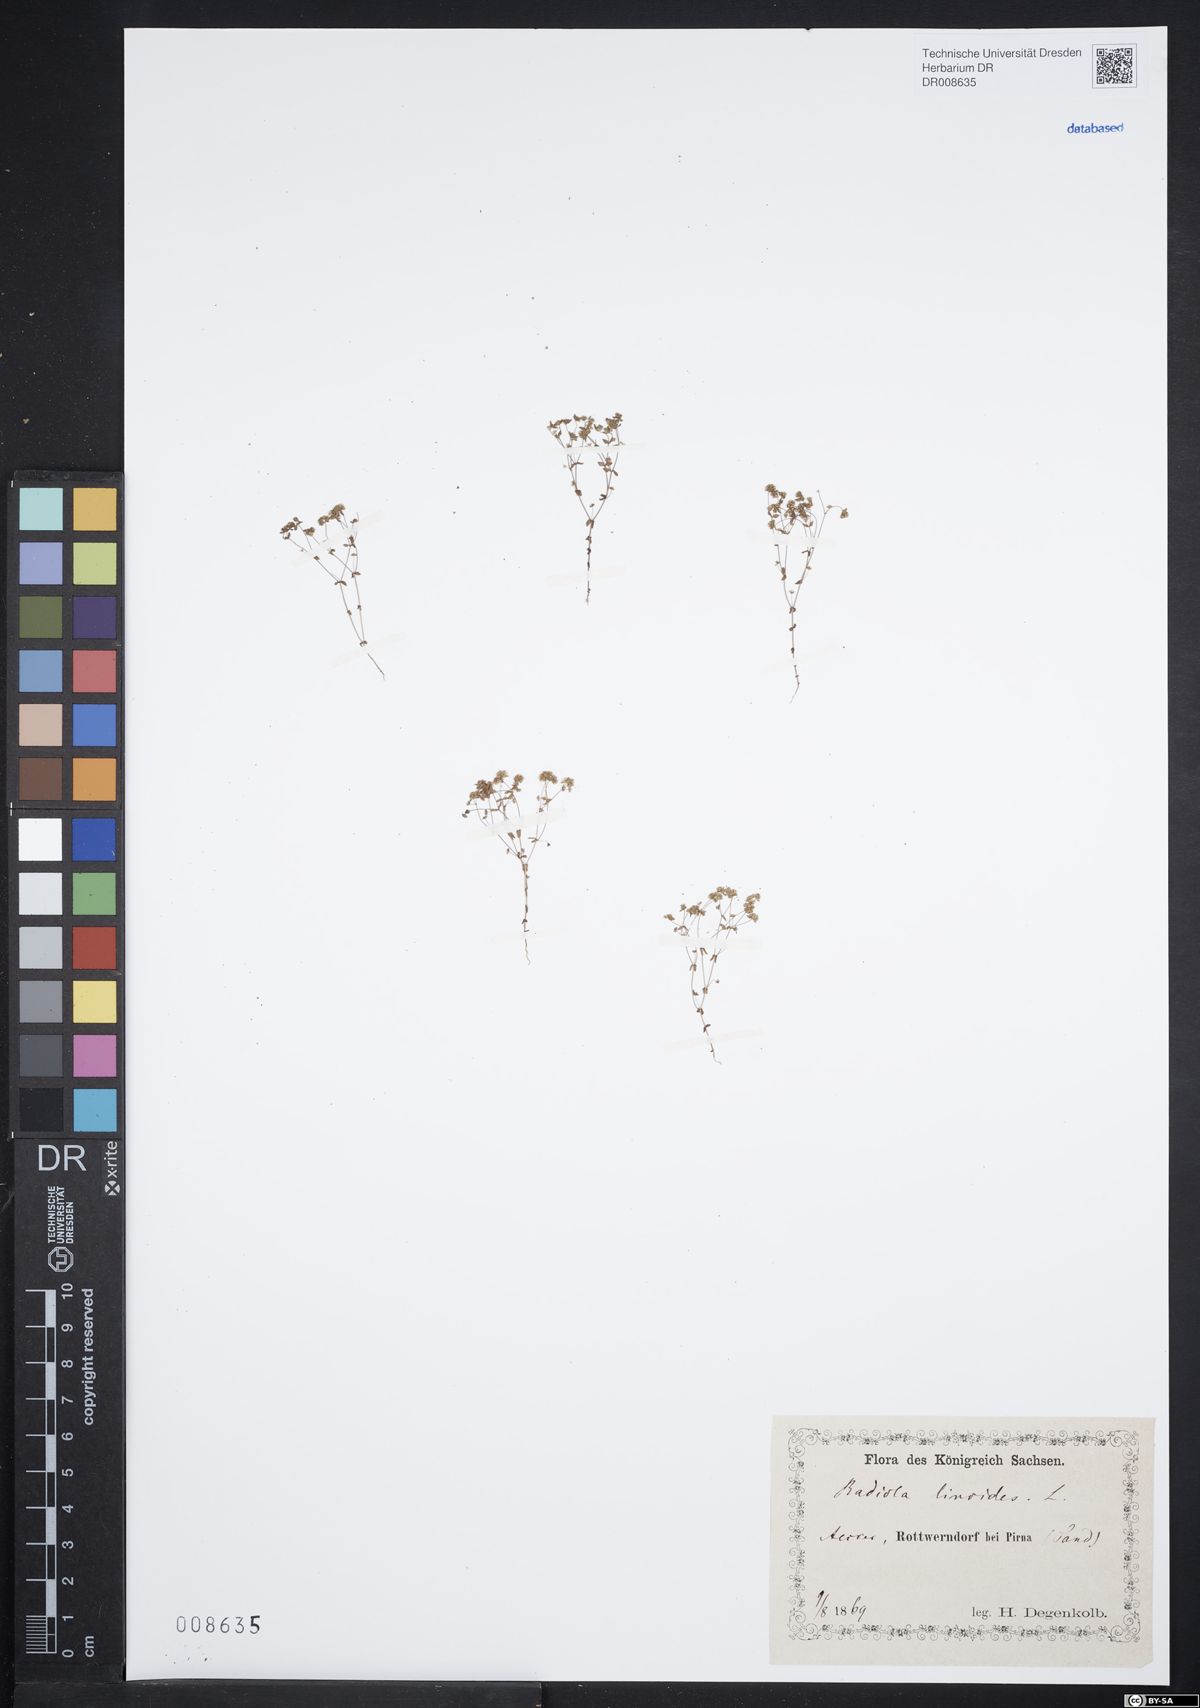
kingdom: Plantae
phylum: Tracheophyta
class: Magnoliopsida
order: Malpighiales
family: Linaceae
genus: Radiola
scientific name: Radiola linoides
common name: Allseed
